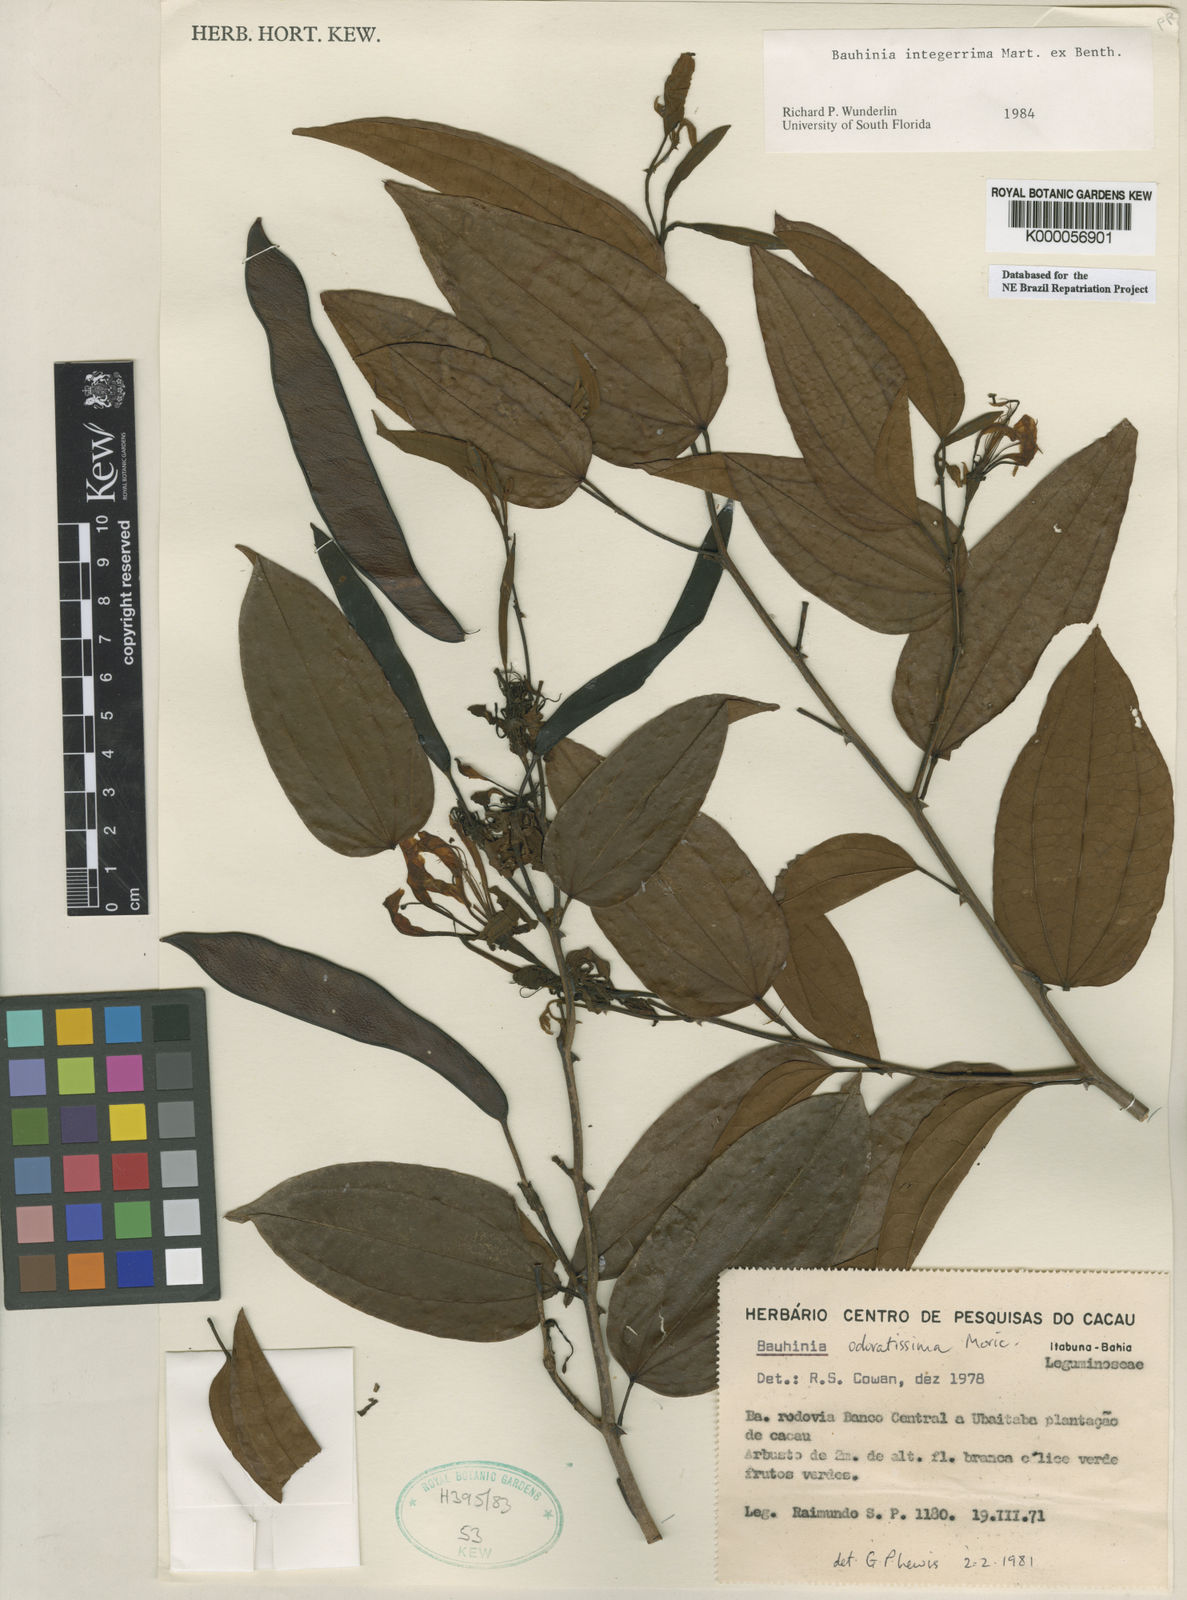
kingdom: Plantae
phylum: Tracheophyta
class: Magnoliopsida
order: Fabales
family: Fabaceae
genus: Bauhinia
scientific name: Bauhinia integerrima
